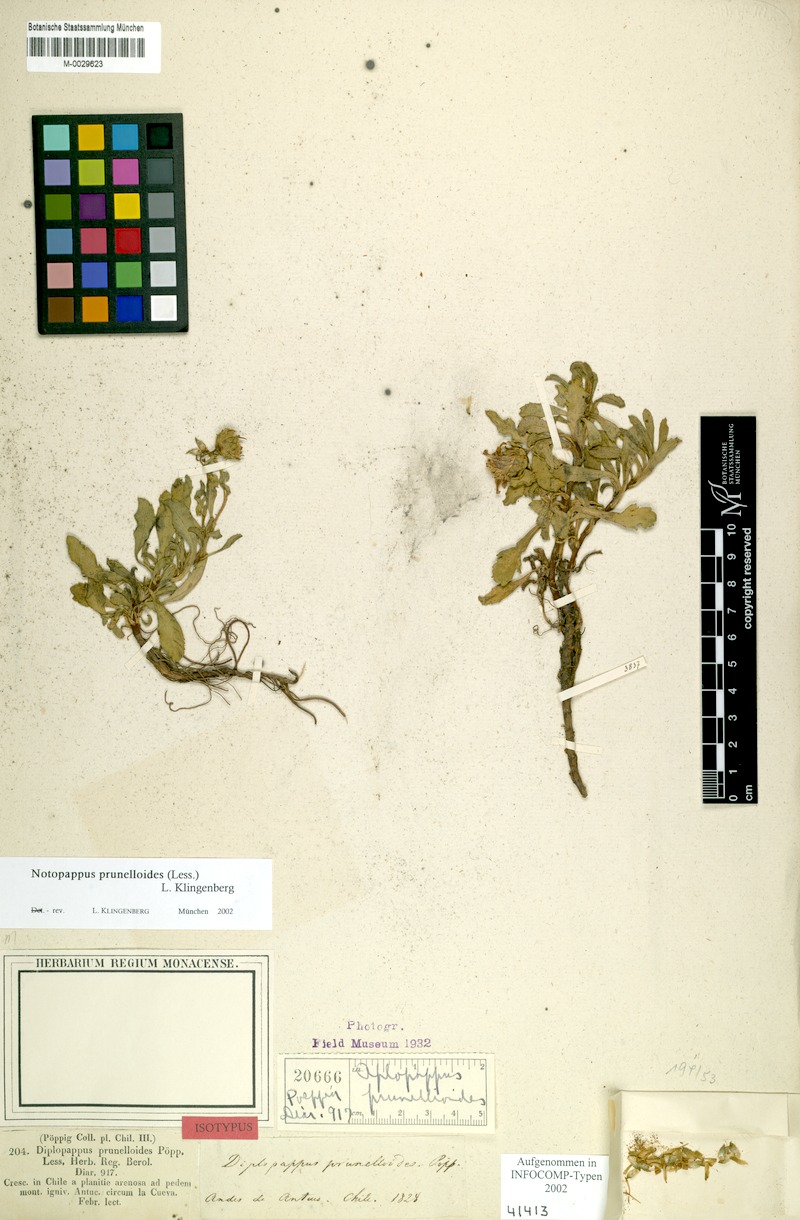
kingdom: Plantae
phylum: Tracheophyta
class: Magnoliopsida
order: Asterales
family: Asteraceae
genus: Notopappus
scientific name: Notopappus prunelloides
